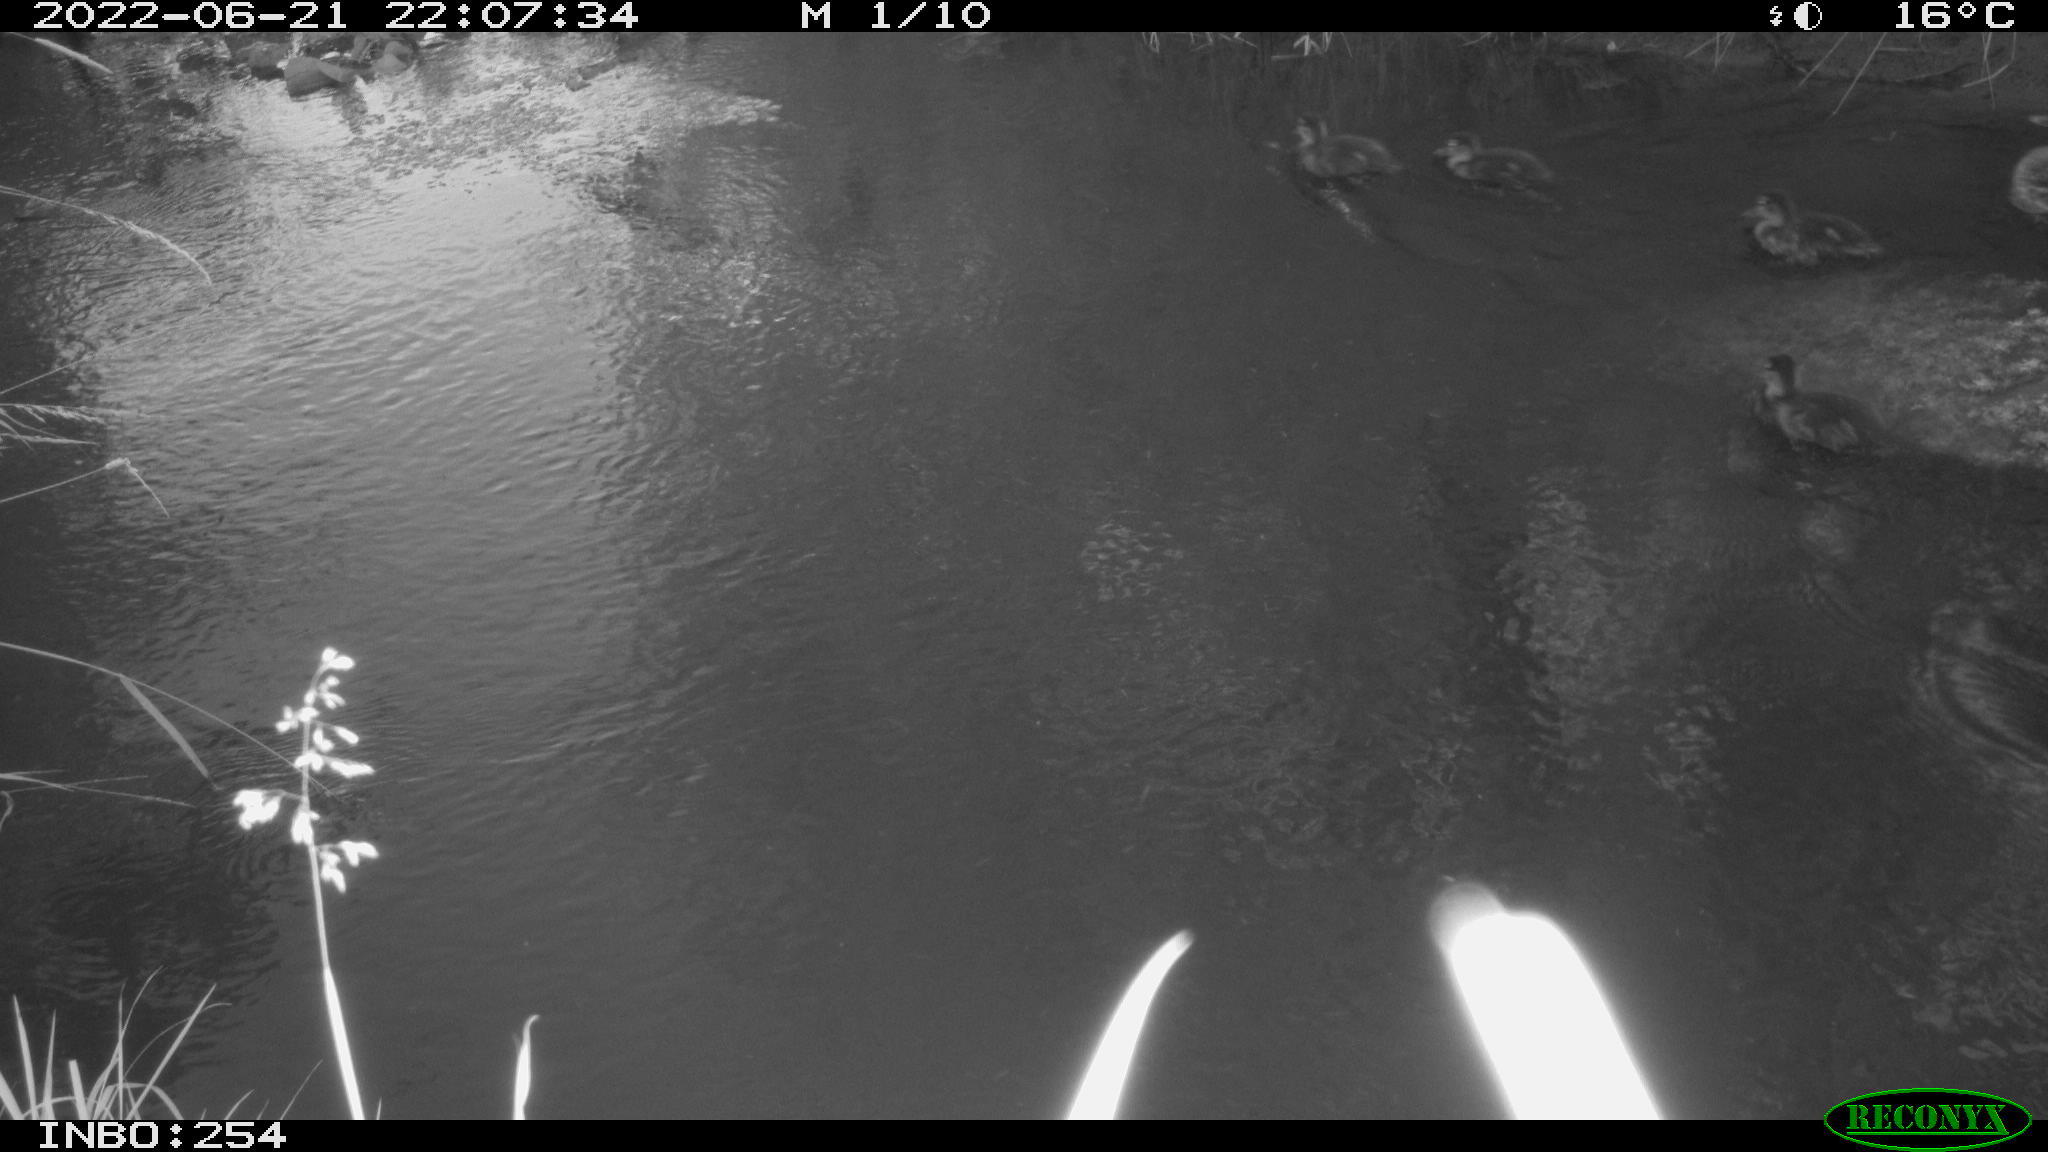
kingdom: Animalia
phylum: Chordata
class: Aves
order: Anseriformes
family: Anatidae
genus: Anas
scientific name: Anas platyrhynchos
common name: Mallard
